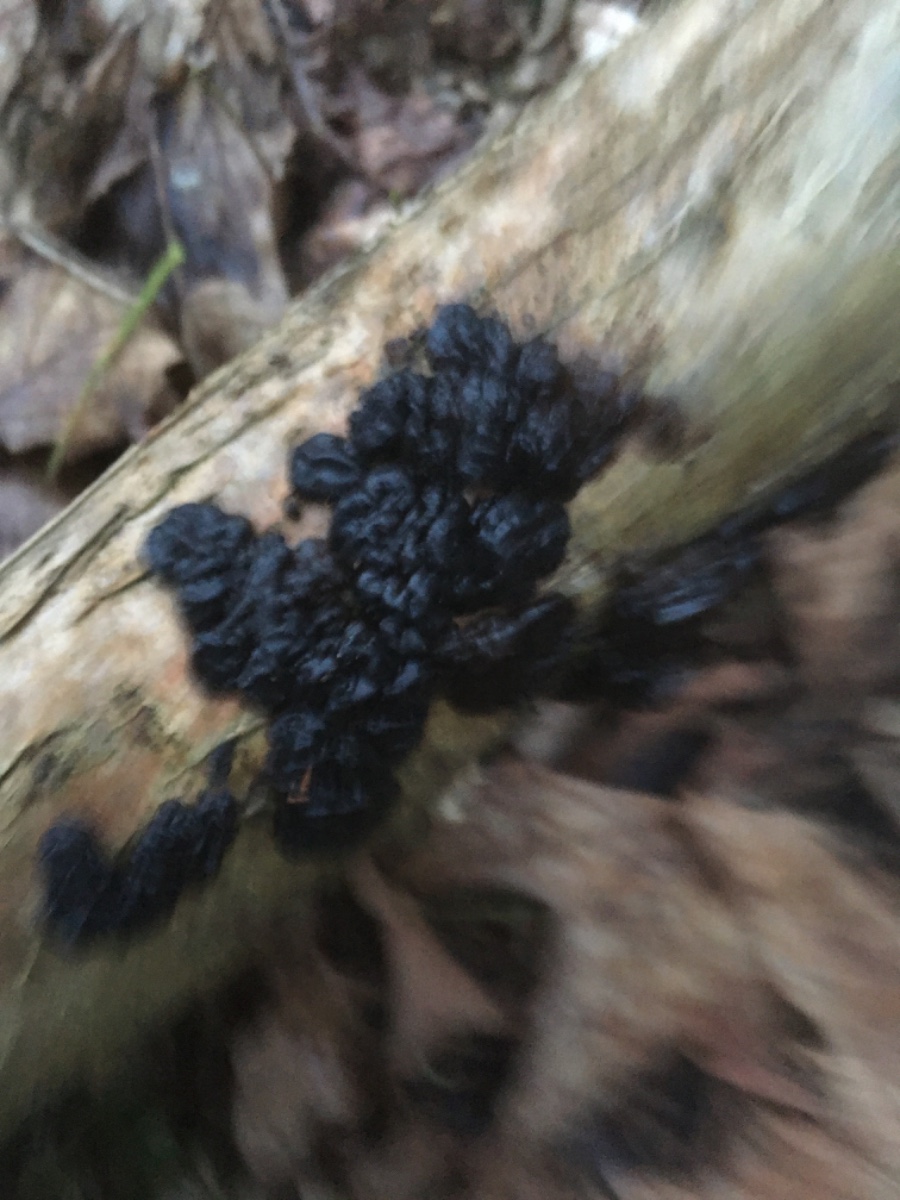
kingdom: Fungi
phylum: Basidiomycota
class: Agaricomycetes
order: Auriculariales
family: Auriculariaceae
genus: Exidia
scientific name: Exidia nigricans
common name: almindelig bævretop
